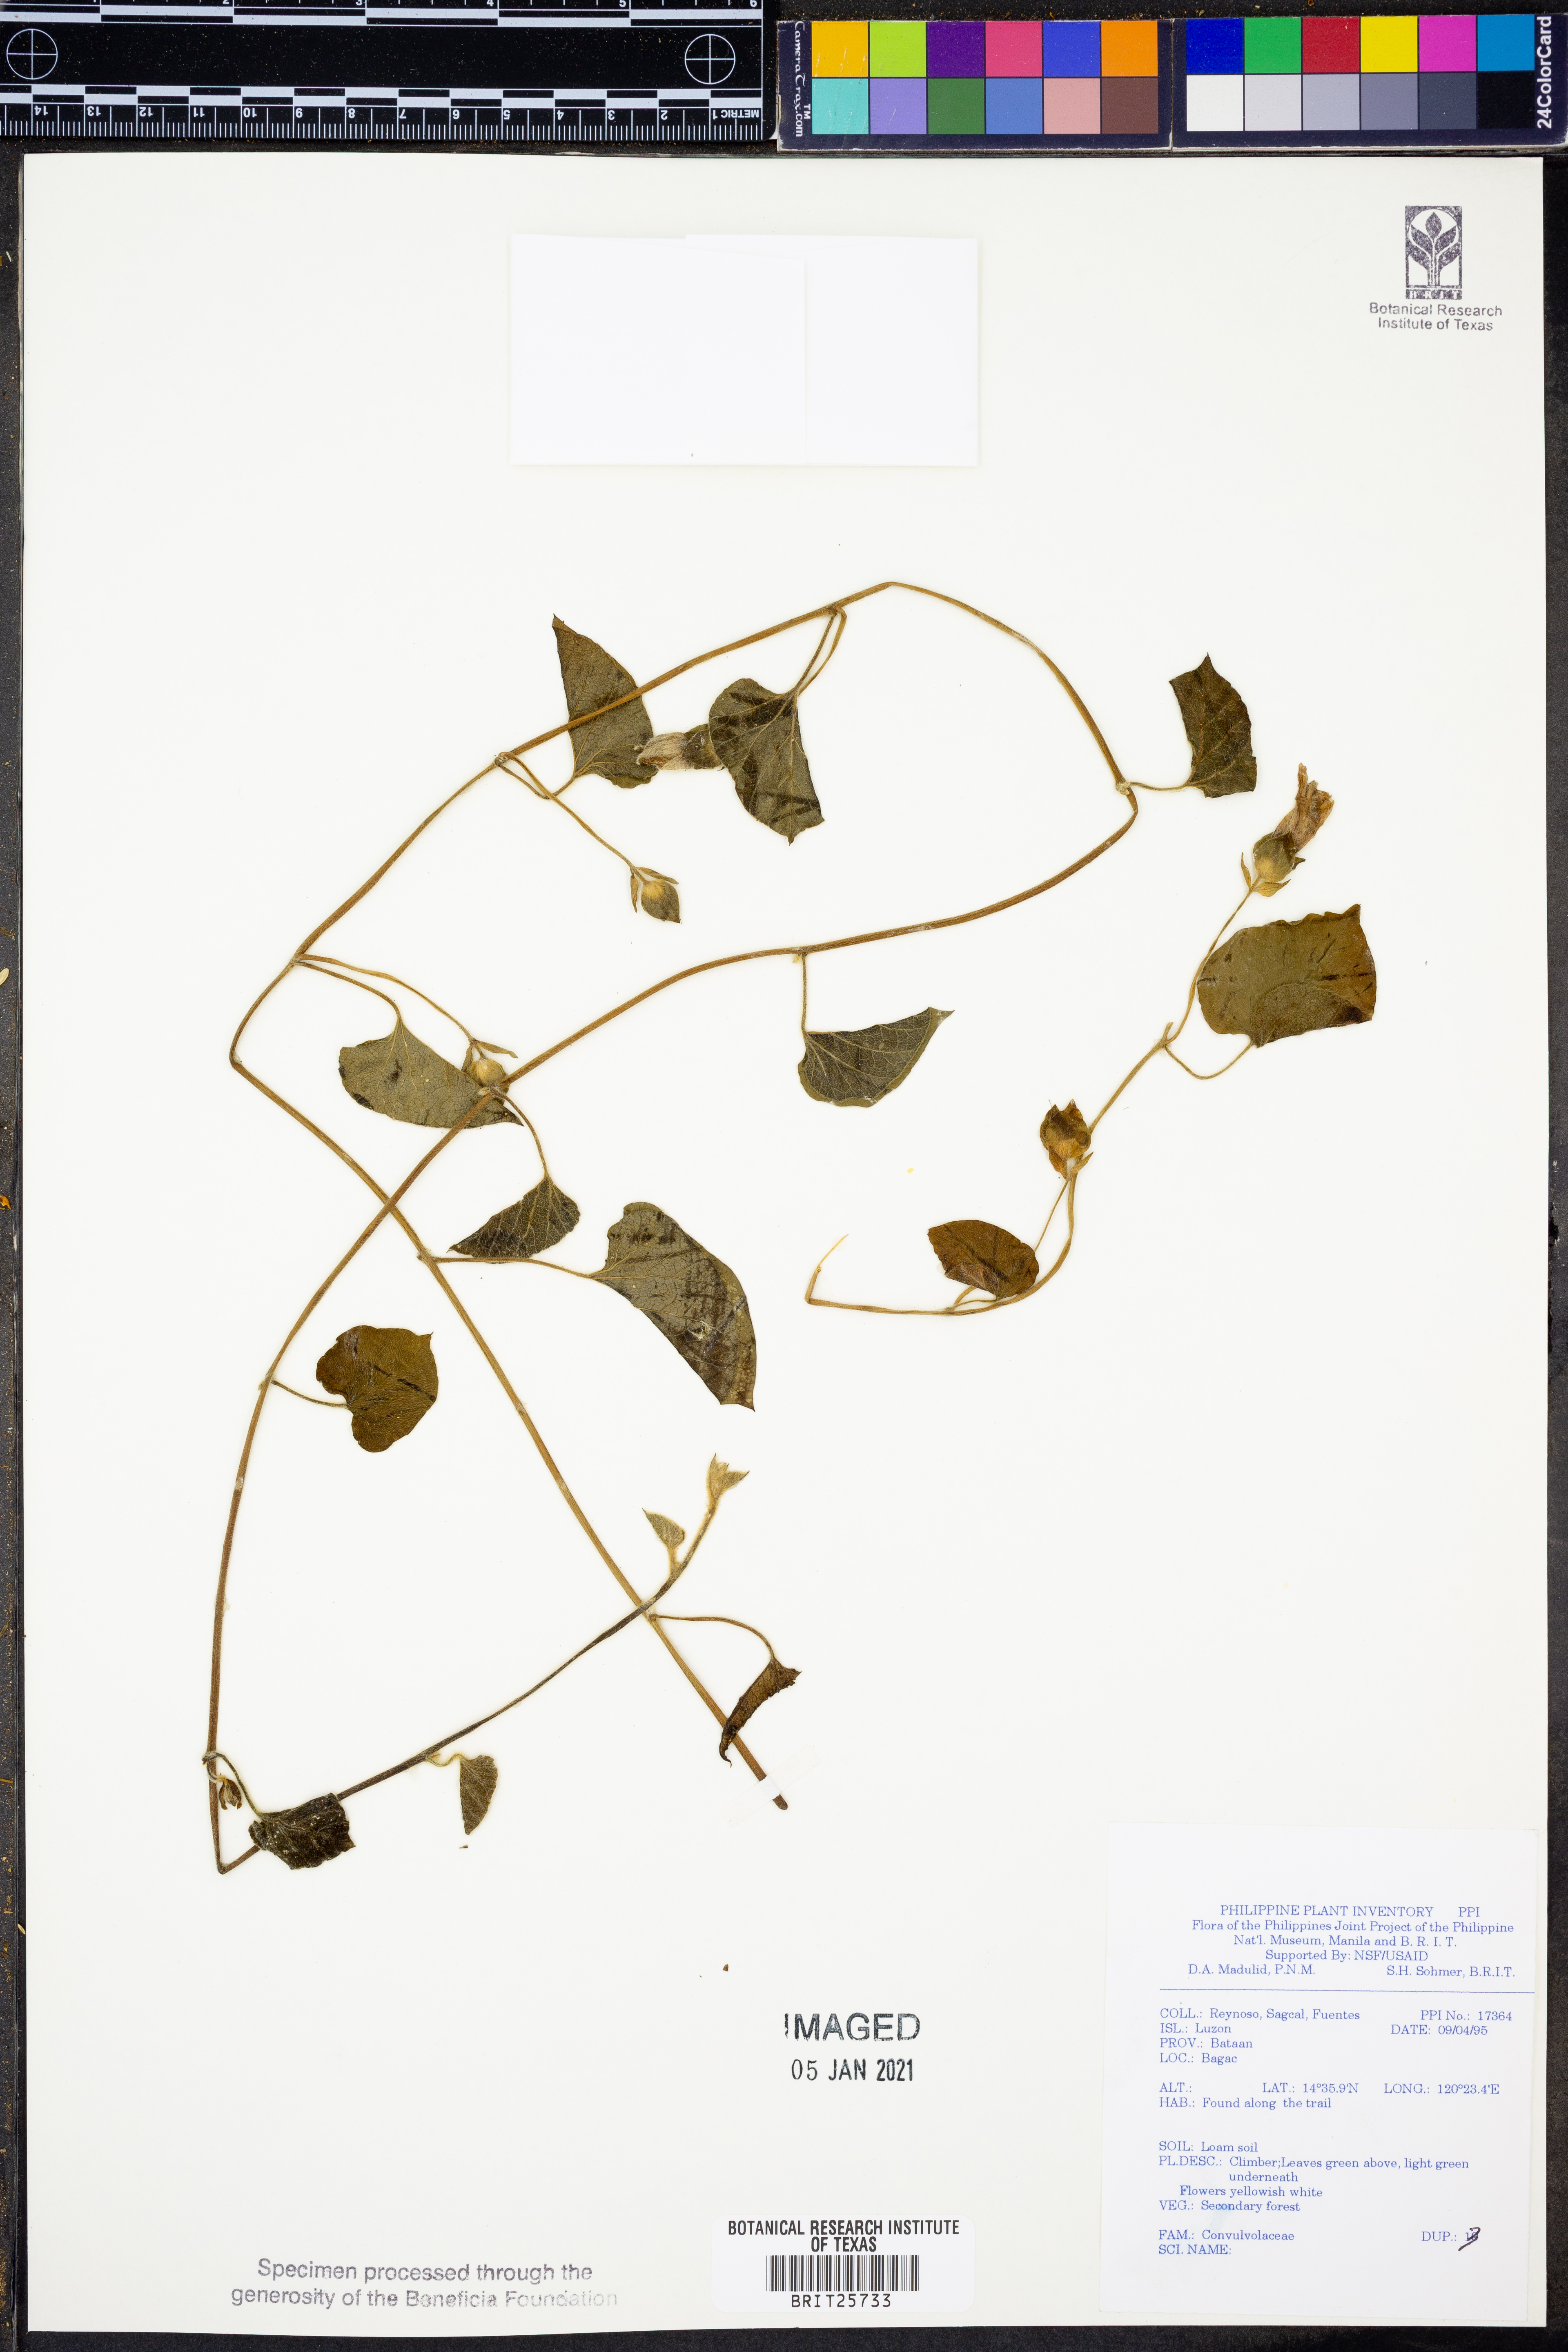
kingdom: Plantae
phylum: Tracheophyta
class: Magnoliopsida
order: Solanales
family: Convolvulaceae
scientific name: Convolvulaceae
